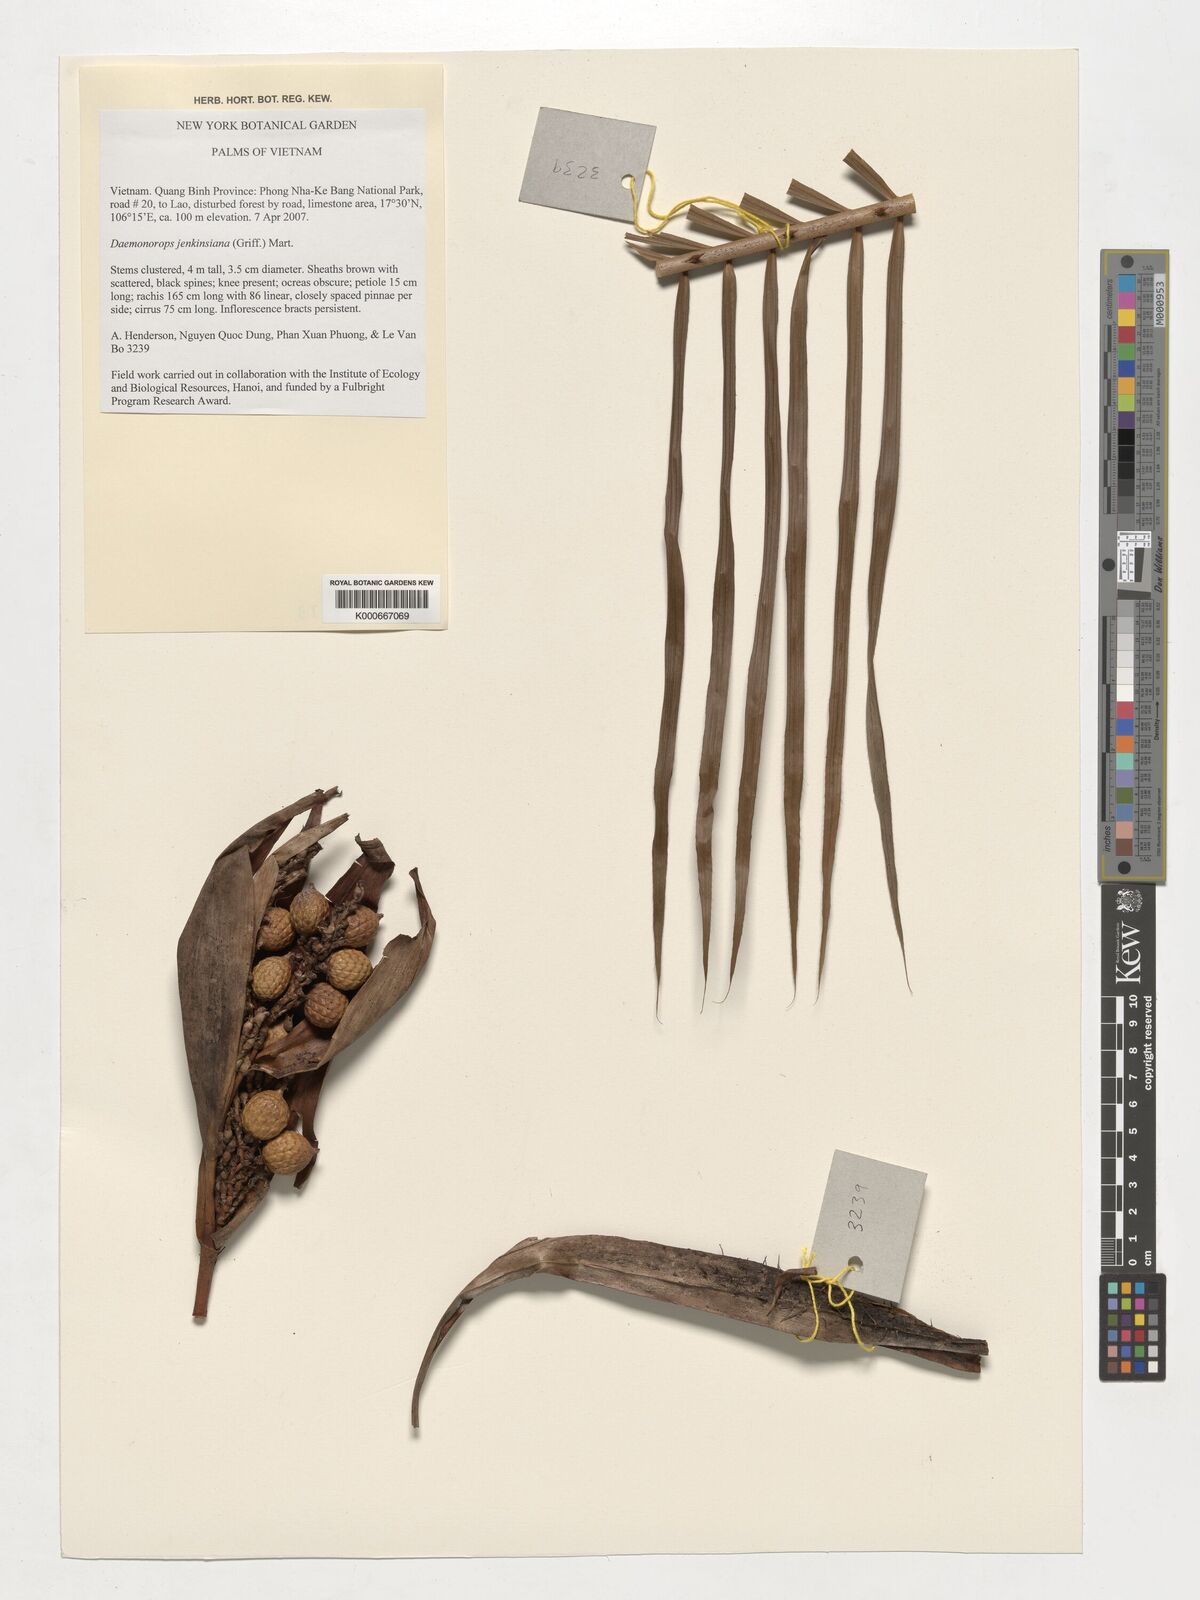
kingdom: Plantae
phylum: Tracheophyta
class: Liliopsida
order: Arecales
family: Arecaceae
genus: Calamus
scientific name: Calamus melanochaetes
